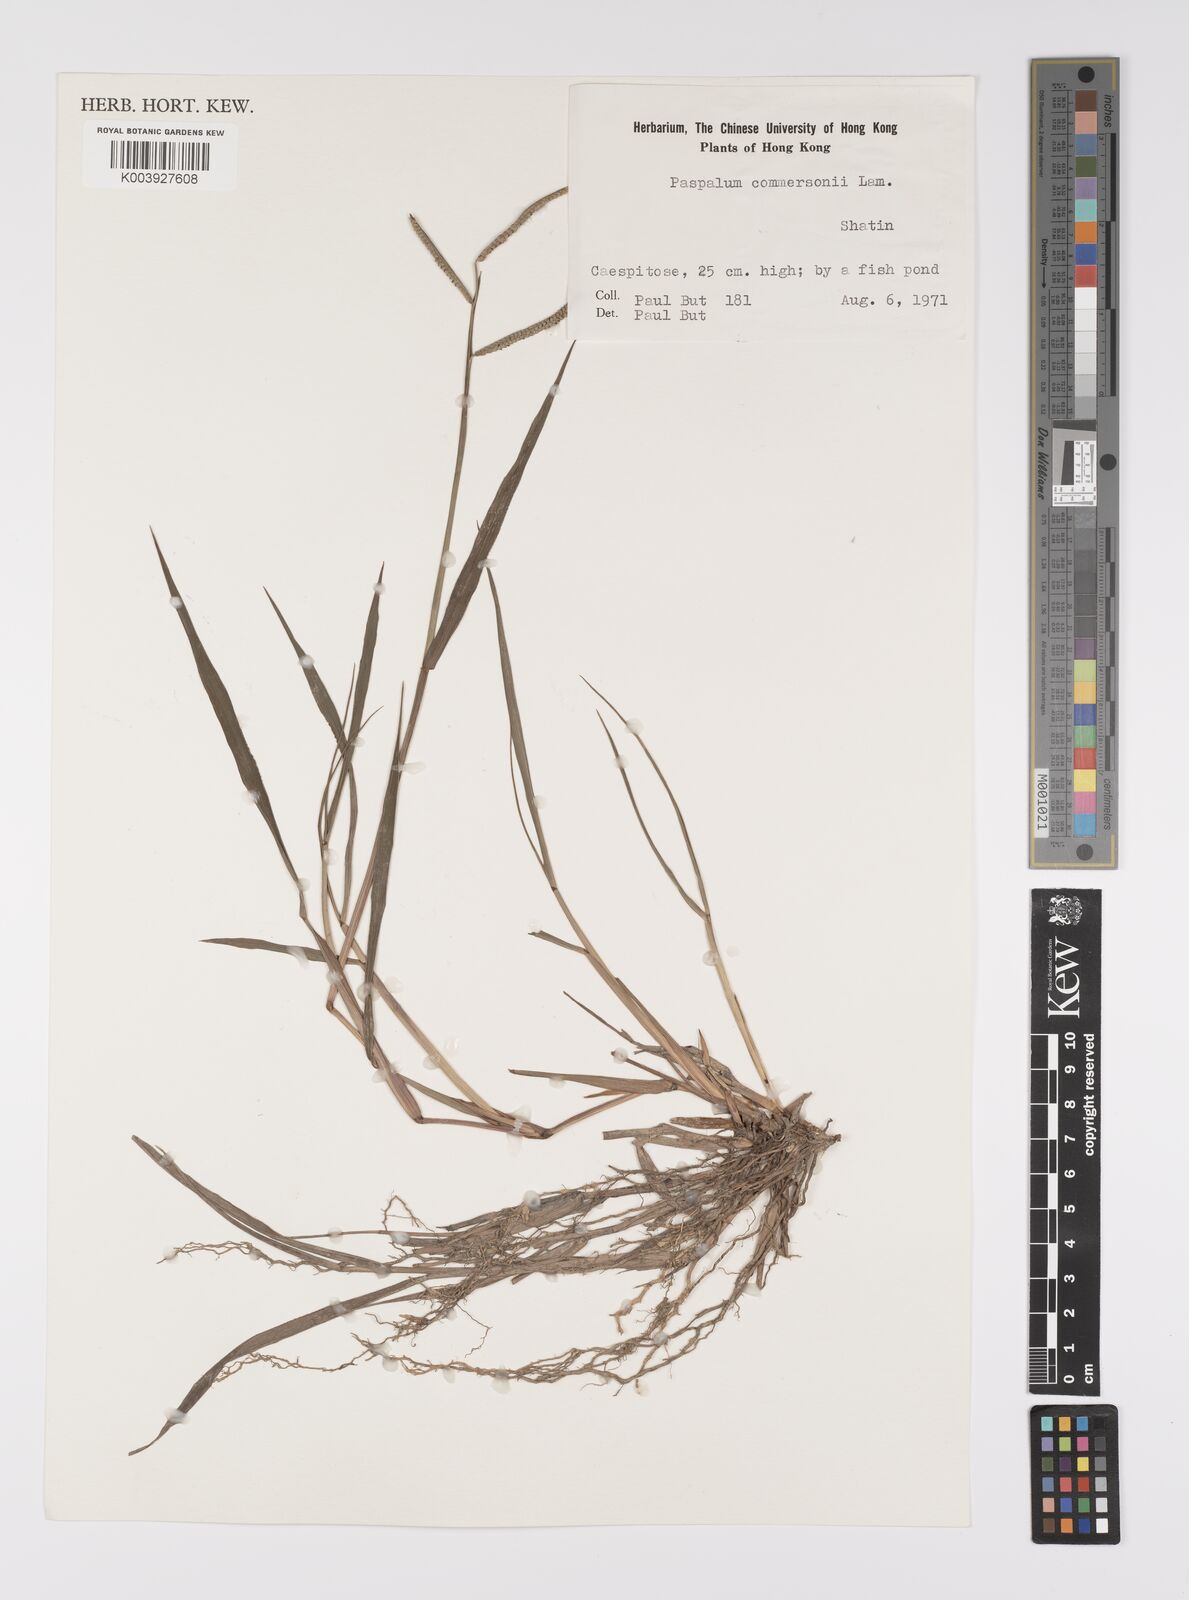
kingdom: Plantae
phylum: Tracheophyta
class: Liliopsida
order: Poales
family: Poaceae
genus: Paspalum
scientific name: Paspalum scrobiculatum
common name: Kodo millet
